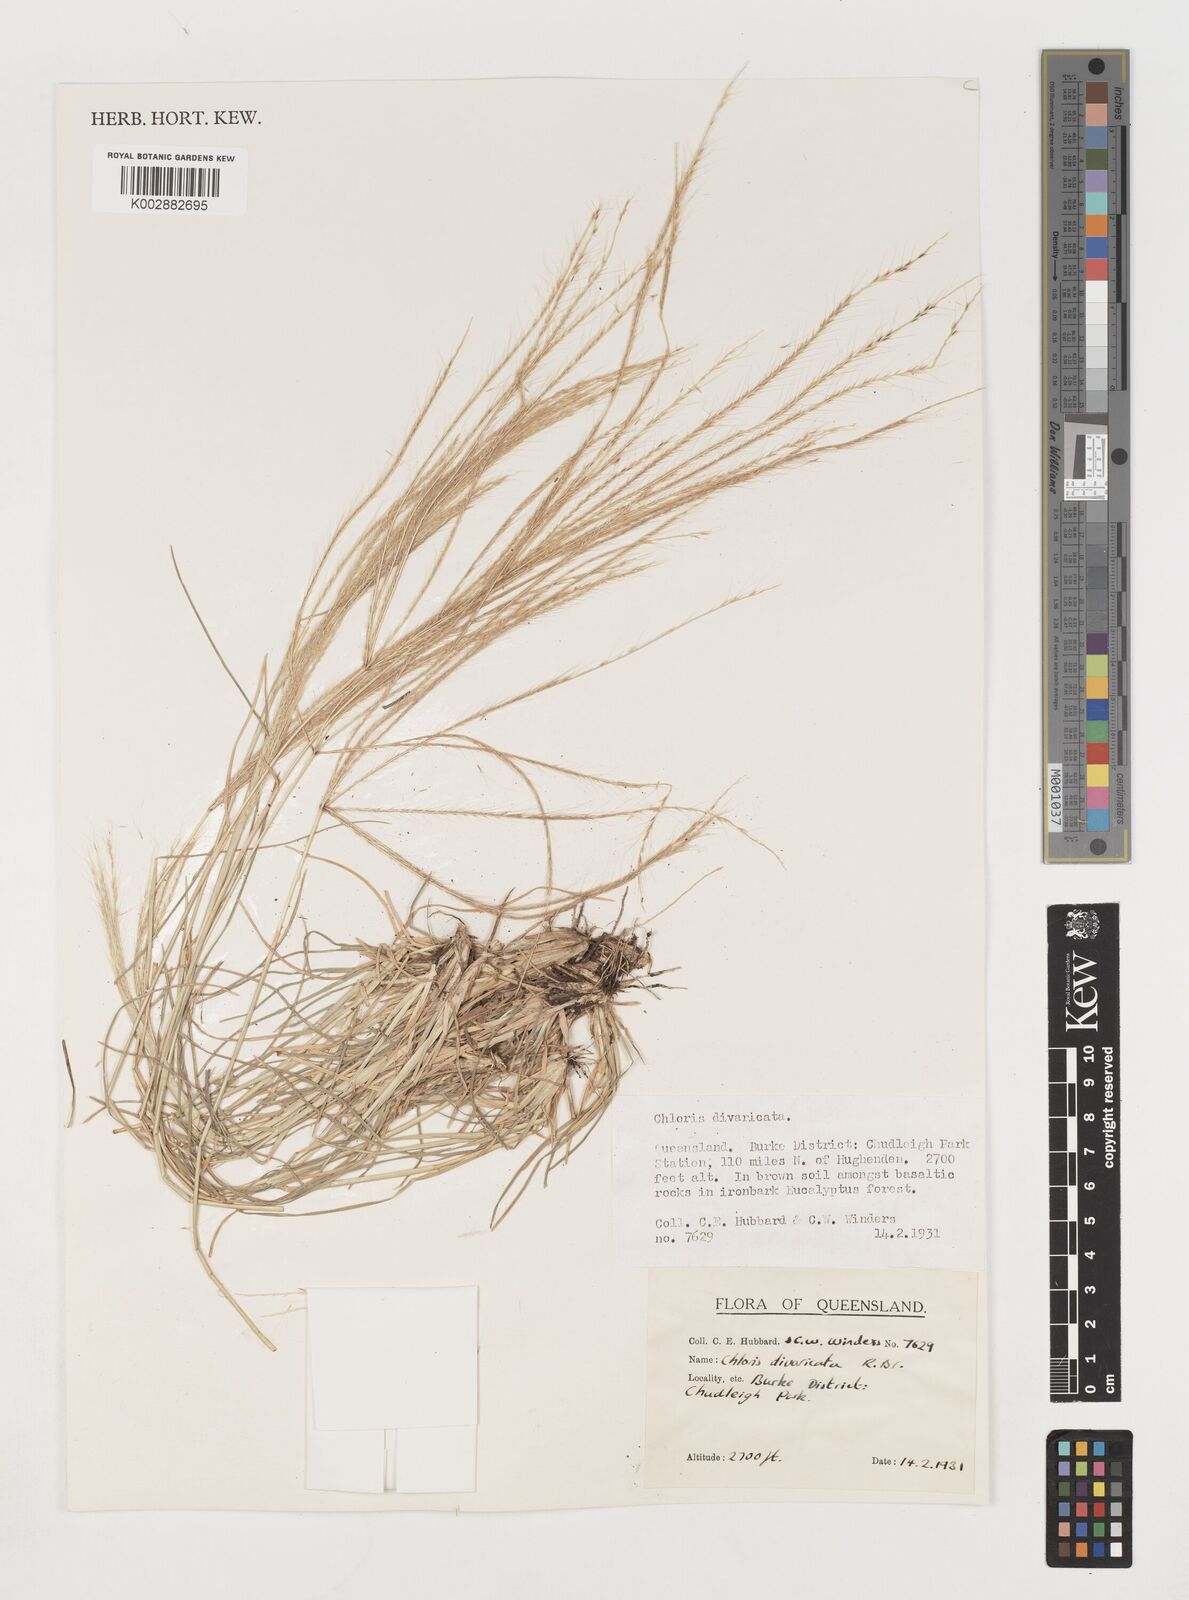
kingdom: Plantae
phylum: Tracheophyta
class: Liliopsida
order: Poales
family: Poaceae
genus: Chloris
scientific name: Chloris divaricata
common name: Spreading windmill grass
